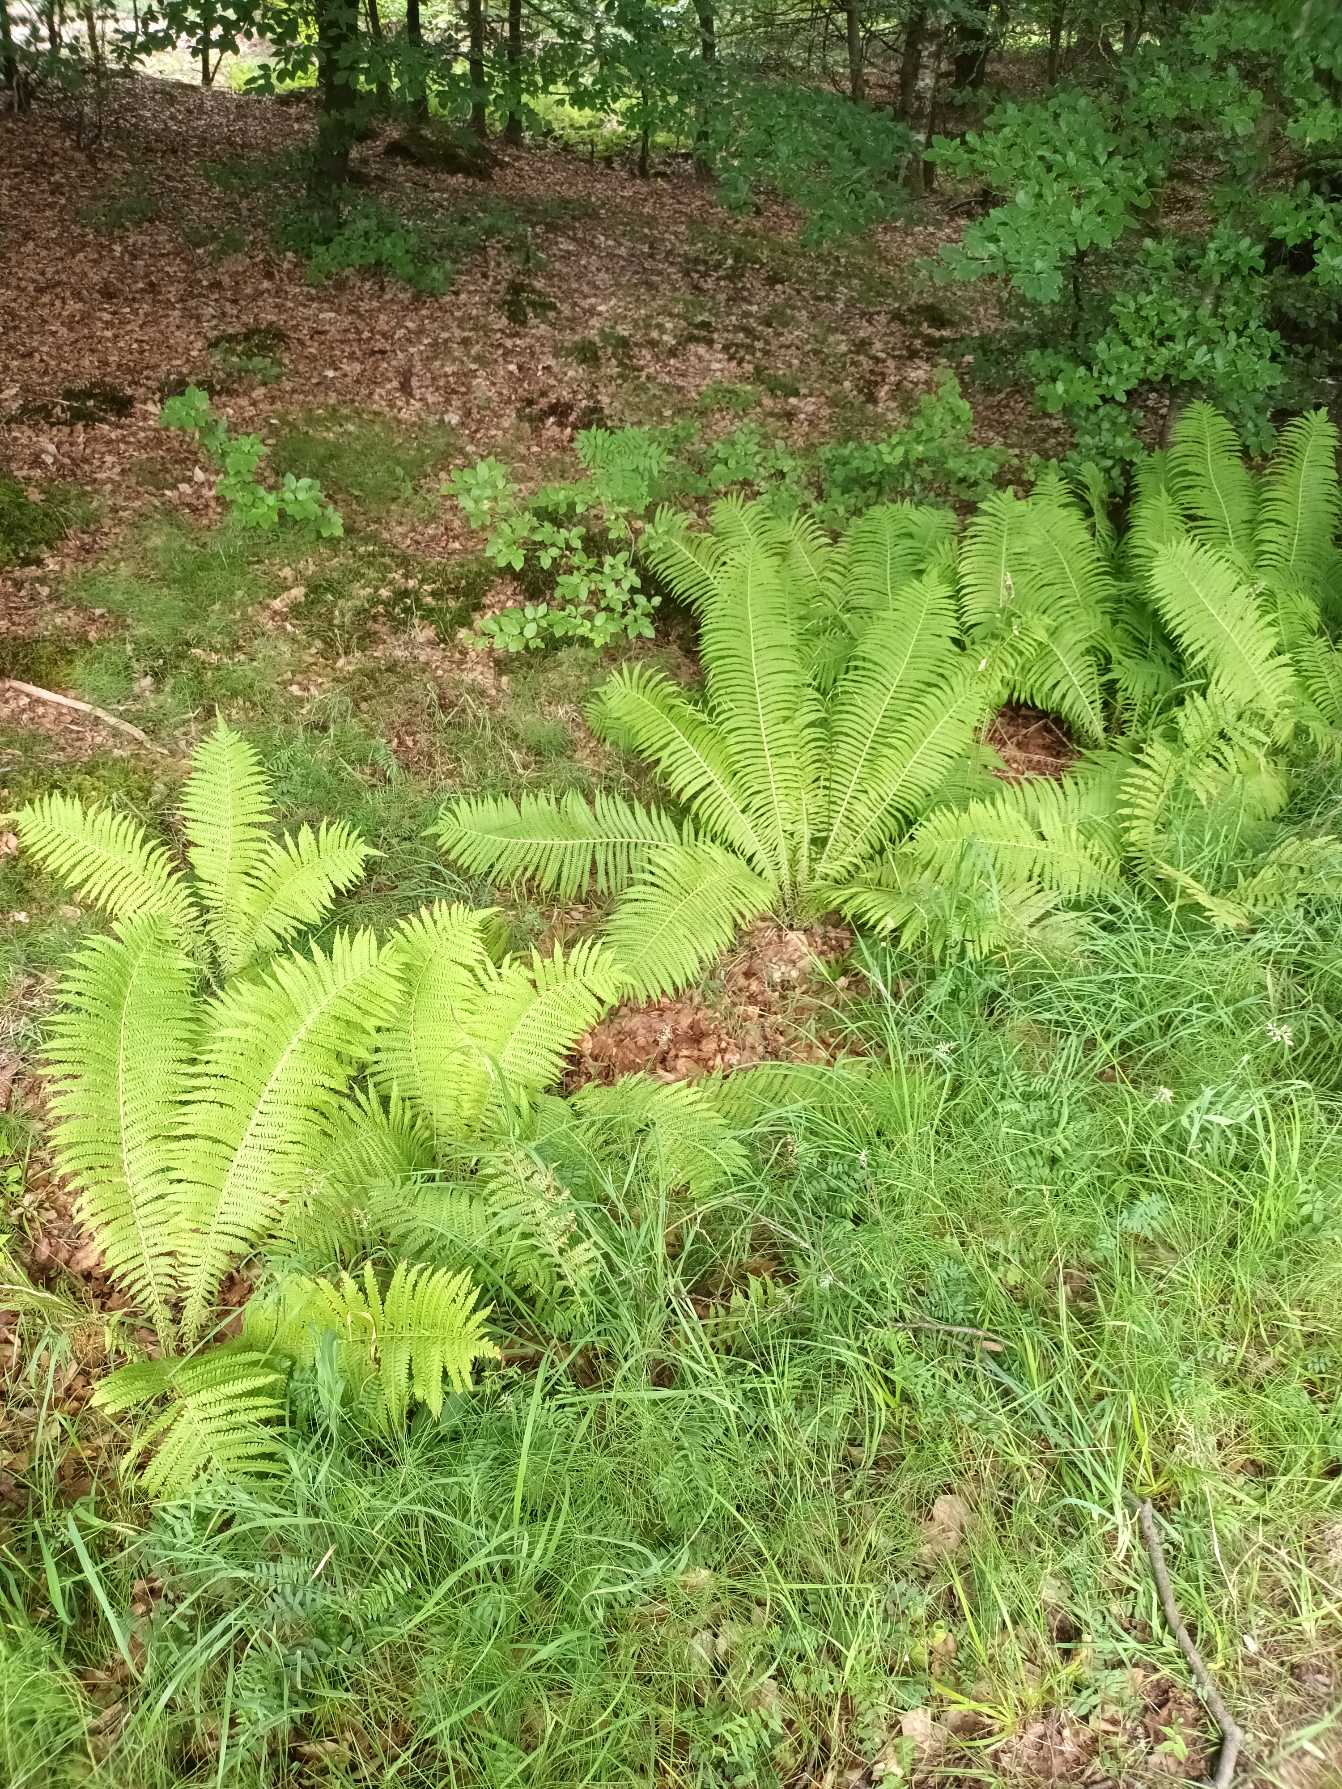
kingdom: Plantae
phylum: Tracheophyta
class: Polypodiopsida
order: Polypodiales
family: Onocleaceae
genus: Matteuccia
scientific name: Matteuccia struthiopteris
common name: Strudsvinge
